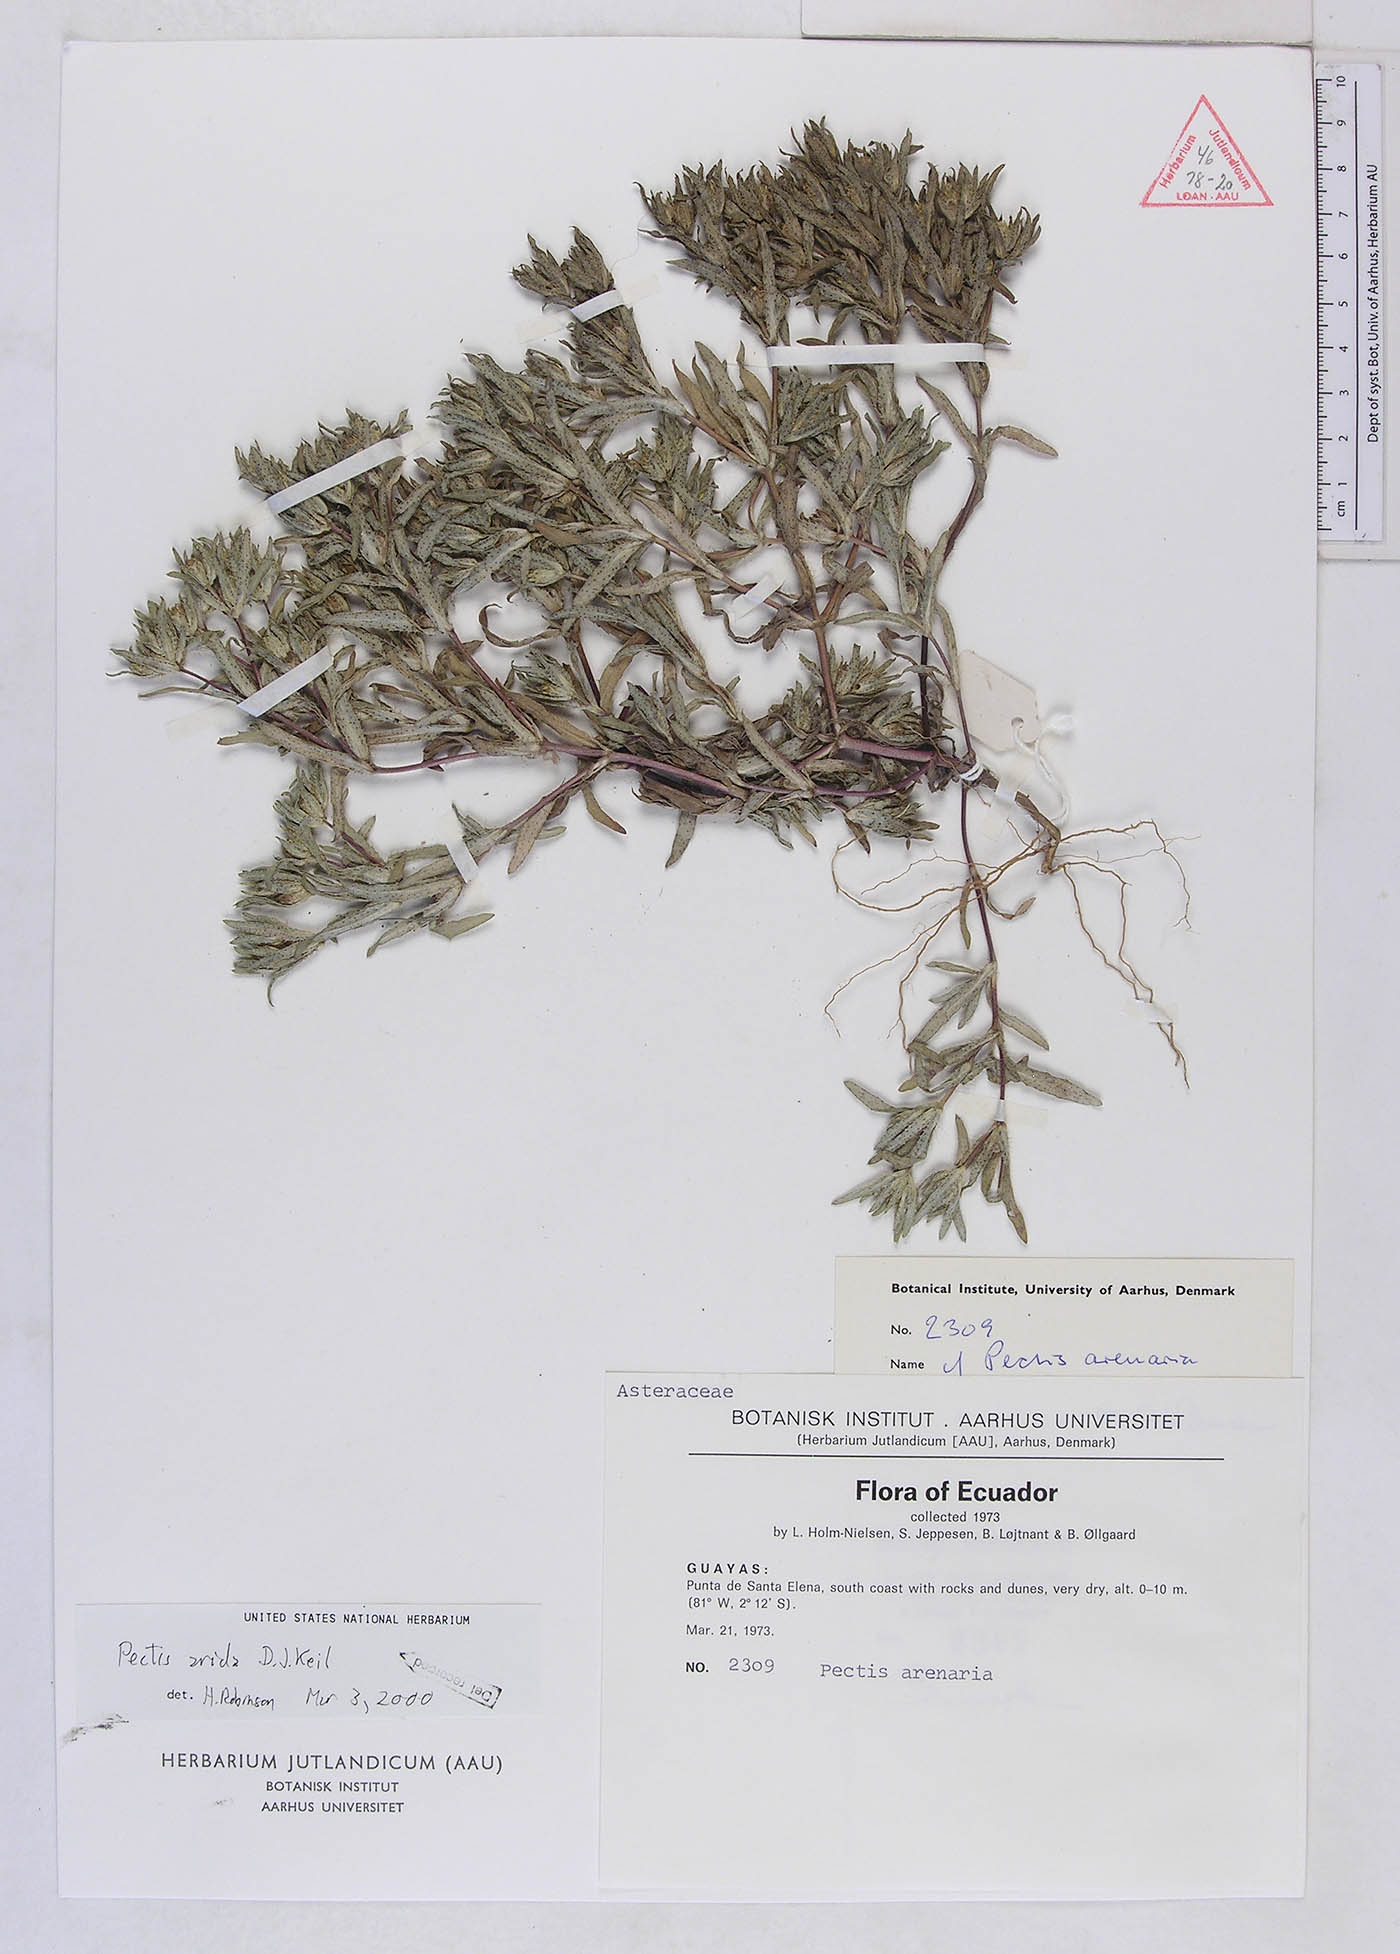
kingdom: Plantae
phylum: Tracheophyta
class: Magnoliopsida
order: Asterales
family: Asteraceae
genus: Pectis
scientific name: Pectis arida
